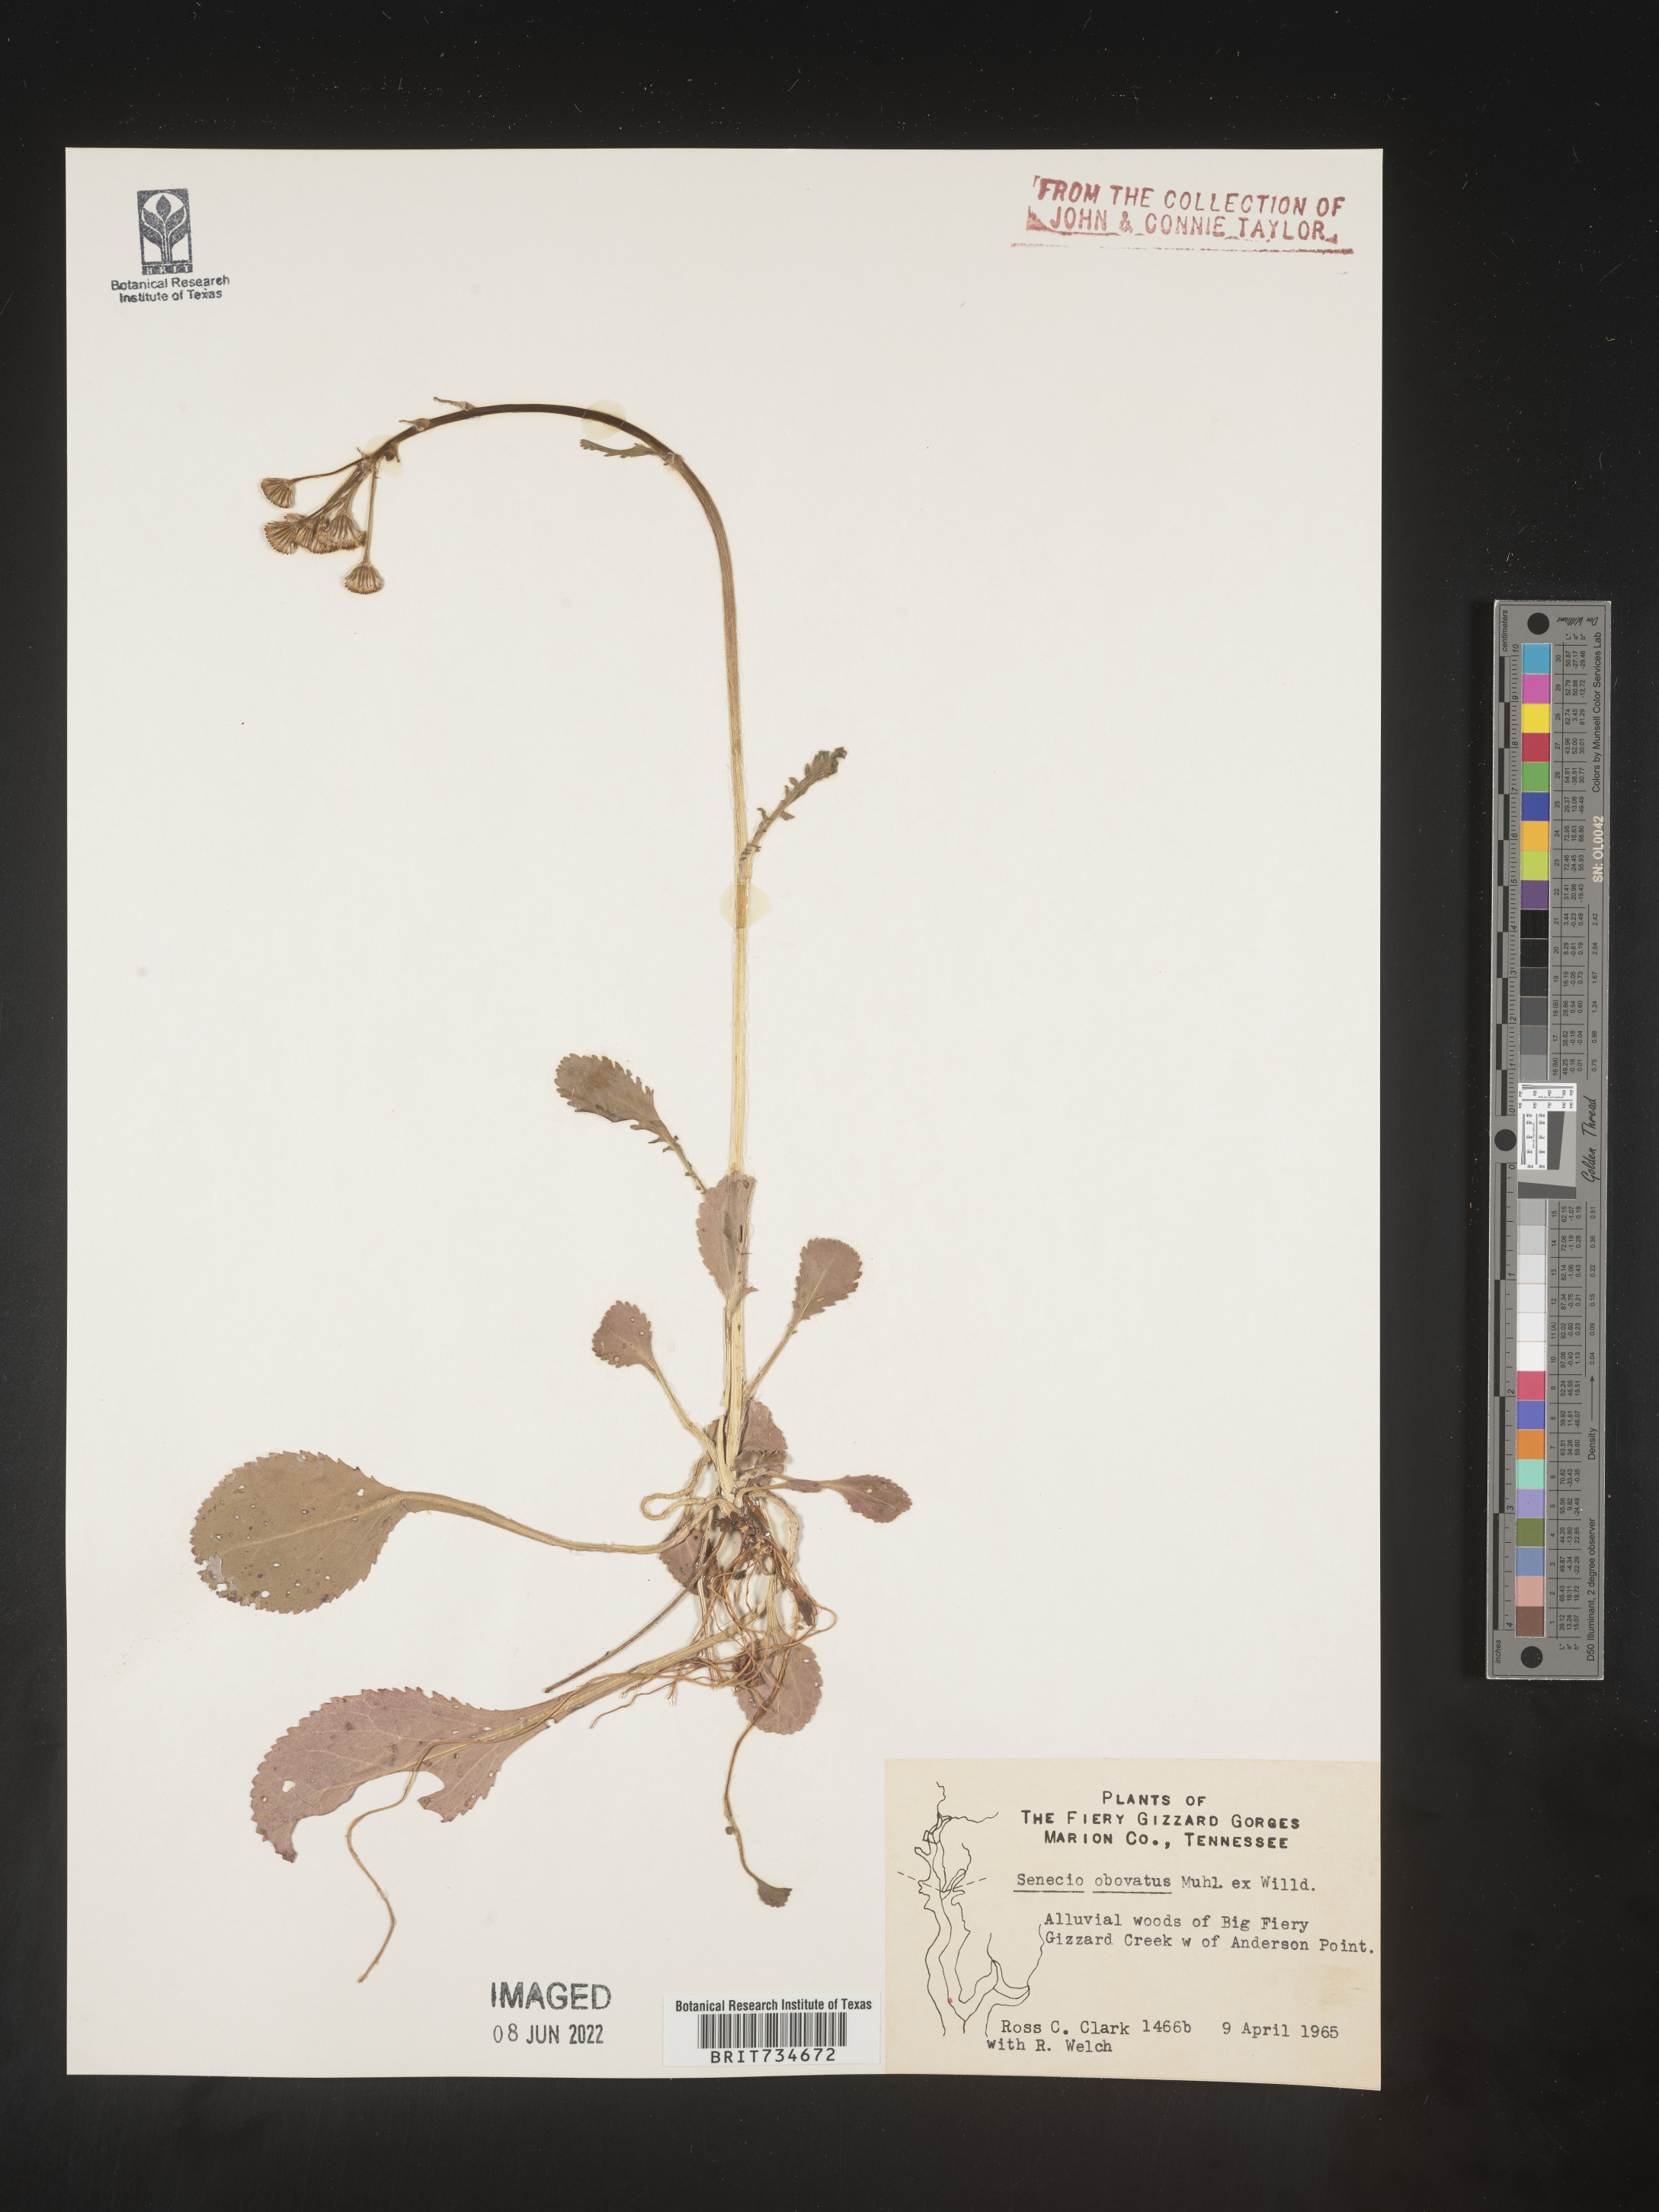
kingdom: Plantae
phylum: Tracheophyta
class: Magnoliopsida
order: Asterales
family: Asteraceae
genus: Packera
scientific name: Packera obovata
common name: Round-leaf ragwort
